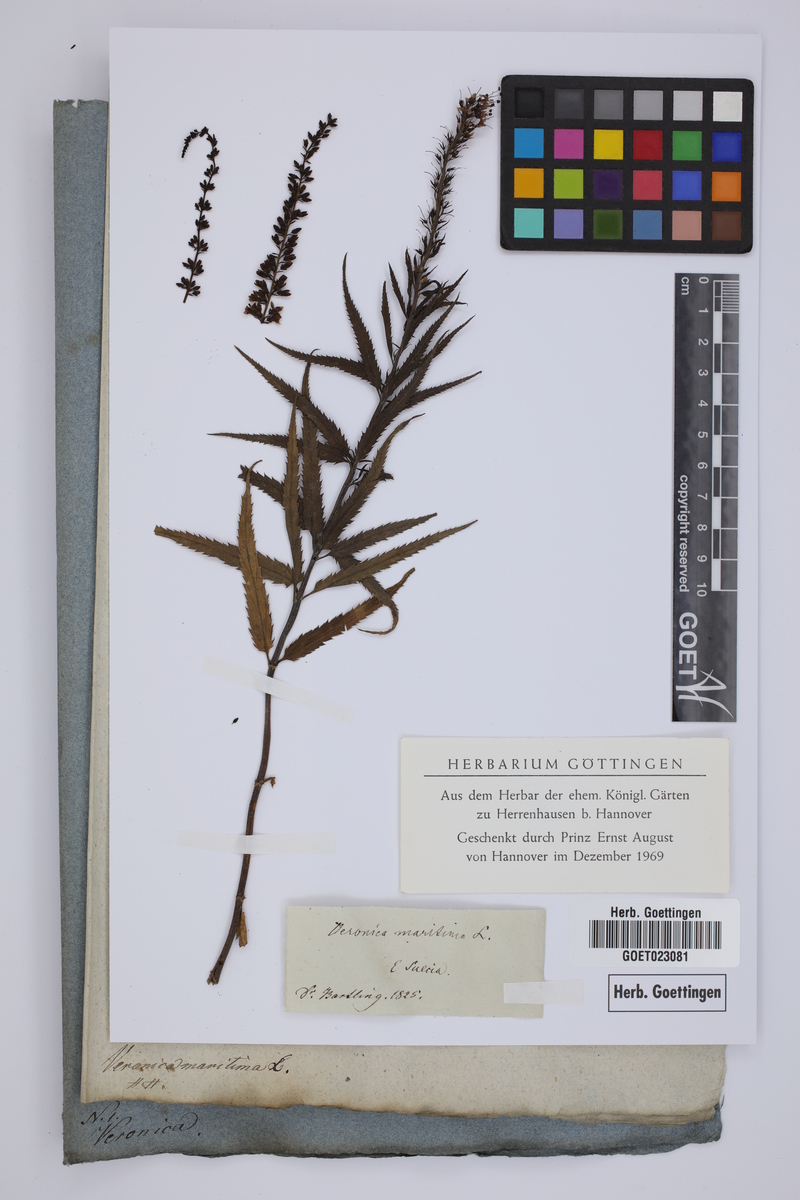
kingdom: Plantae
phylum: Tracheophyta
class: Magnoliopsida
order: Lamiales
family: Plantaginaceae
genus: Veronica
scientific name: Veronica longifolia
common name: Garden speedwell
